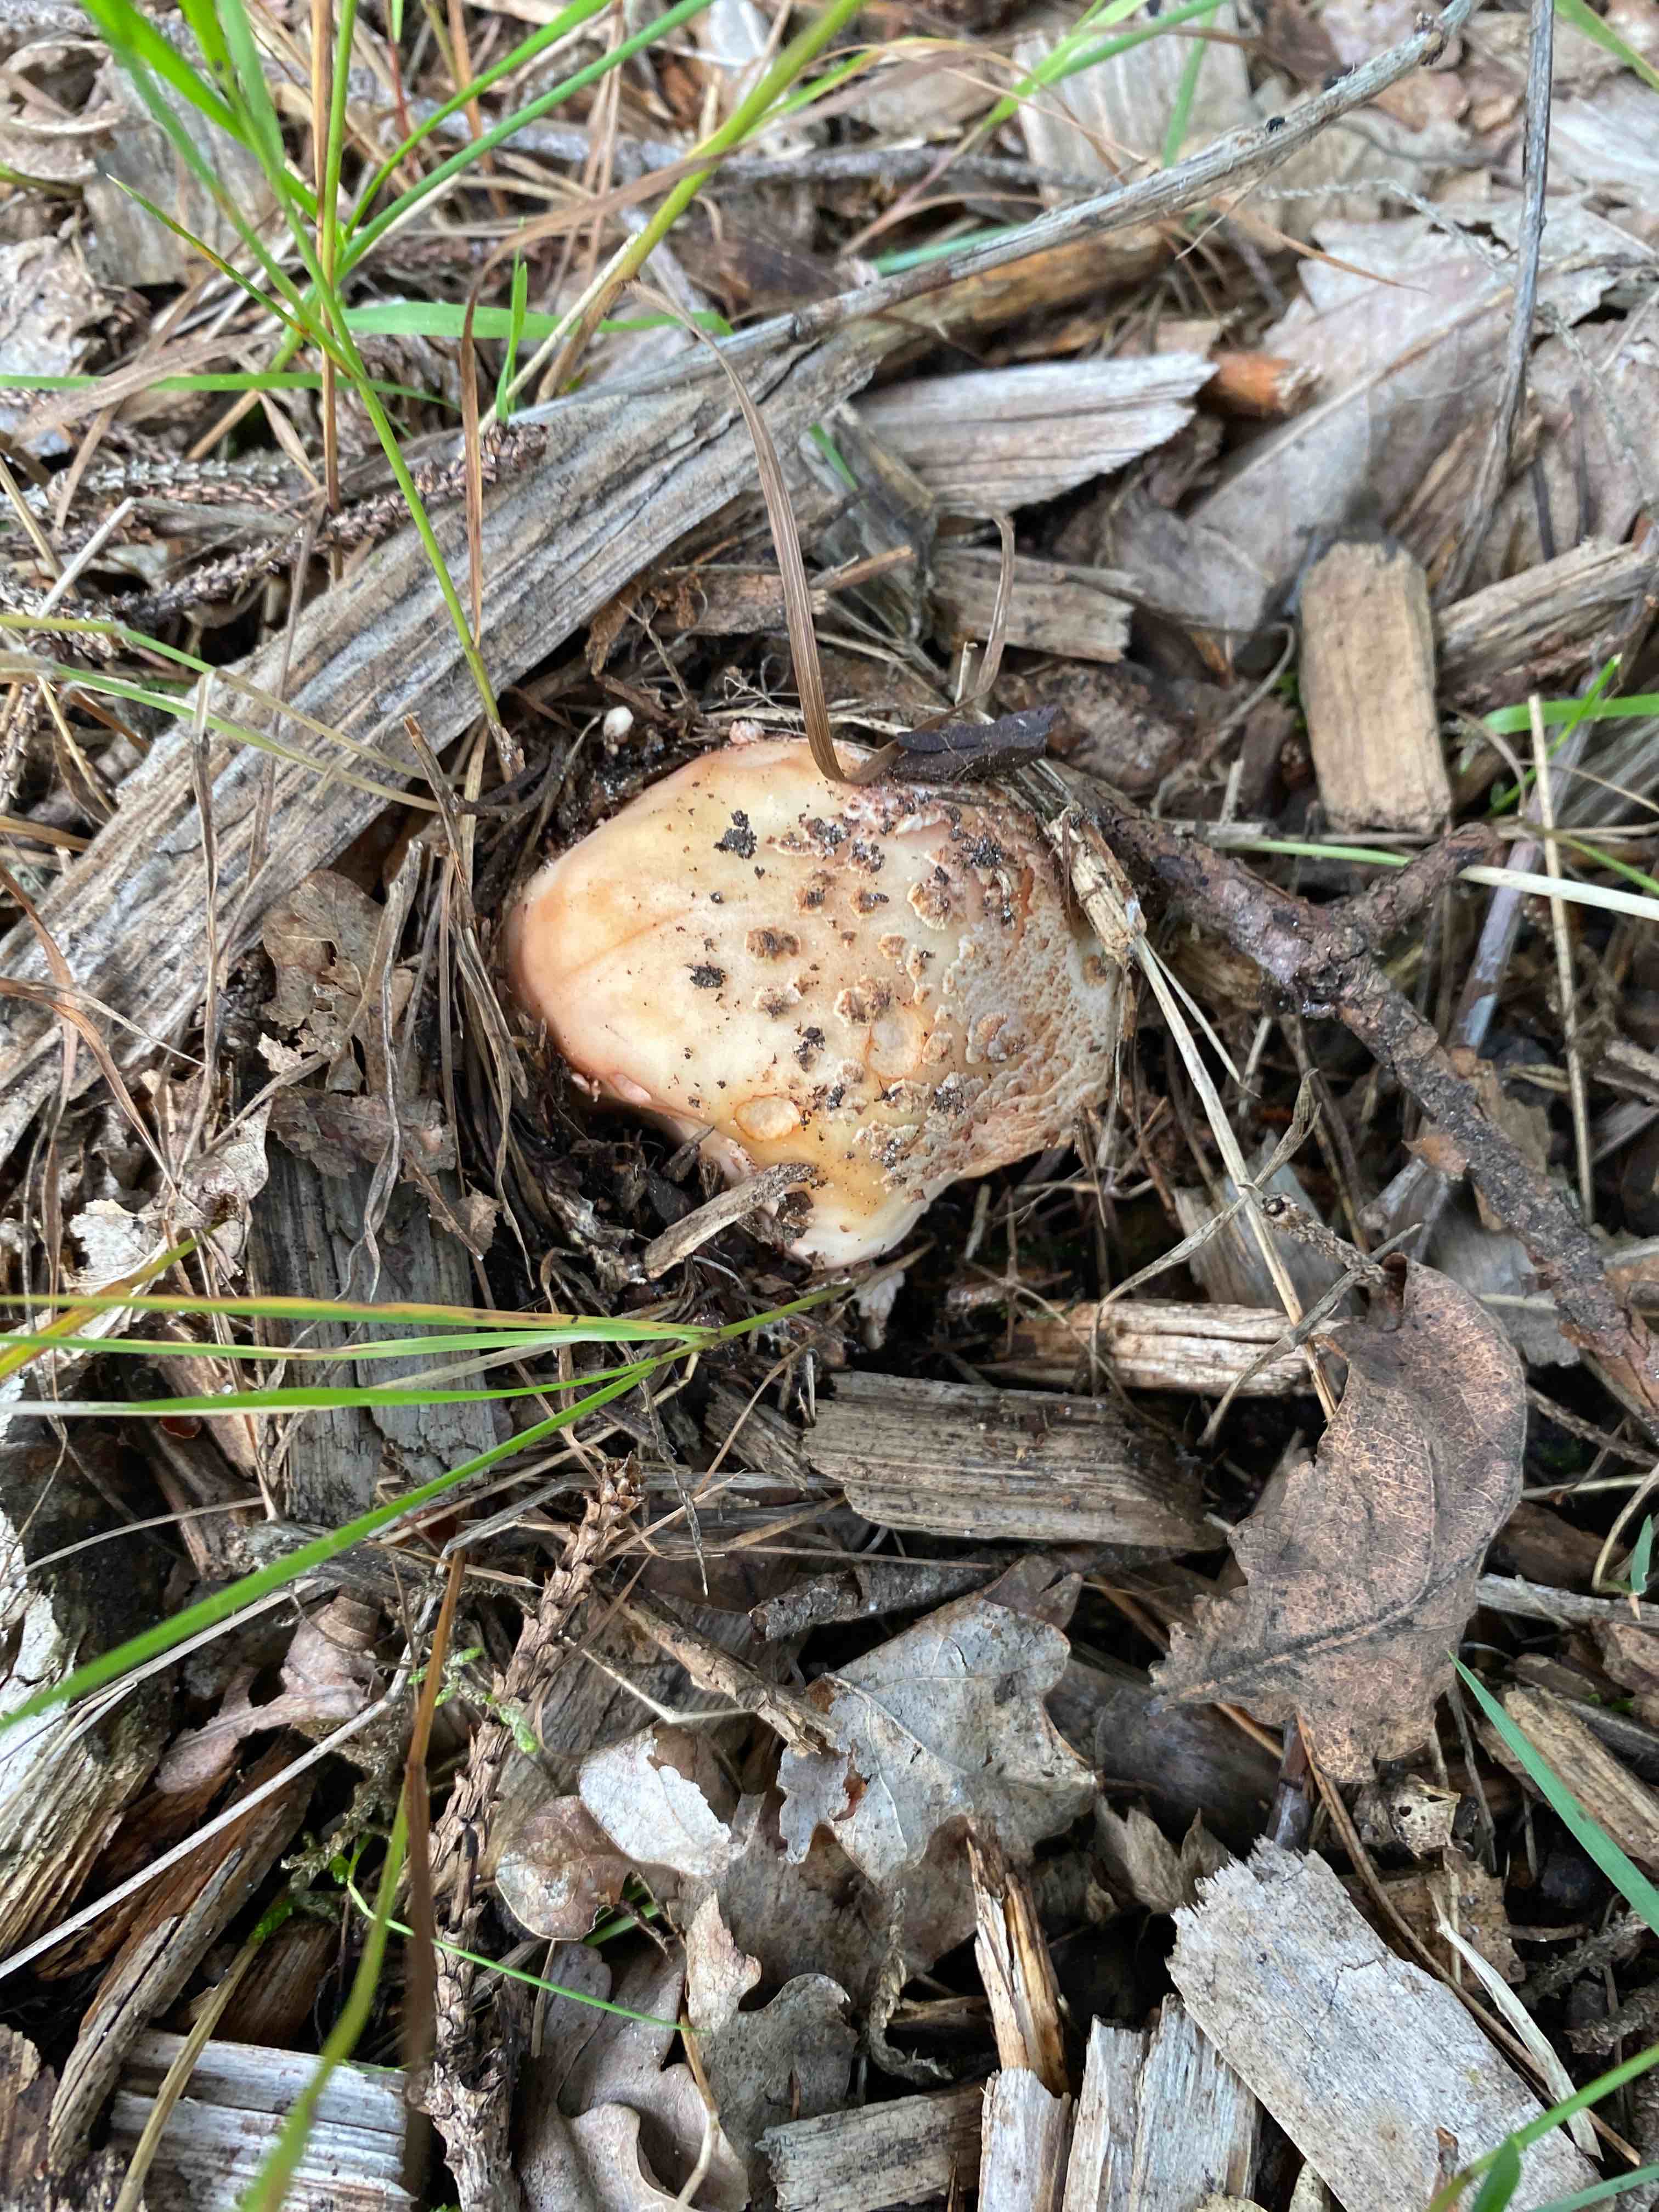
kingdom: Fungi
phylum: Basidiomycota
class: Agaricomycetes
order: Agaricales
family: Amanitaceae
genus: Amanita
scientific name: Amanita rubescens
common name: rødmende fluesvamp
